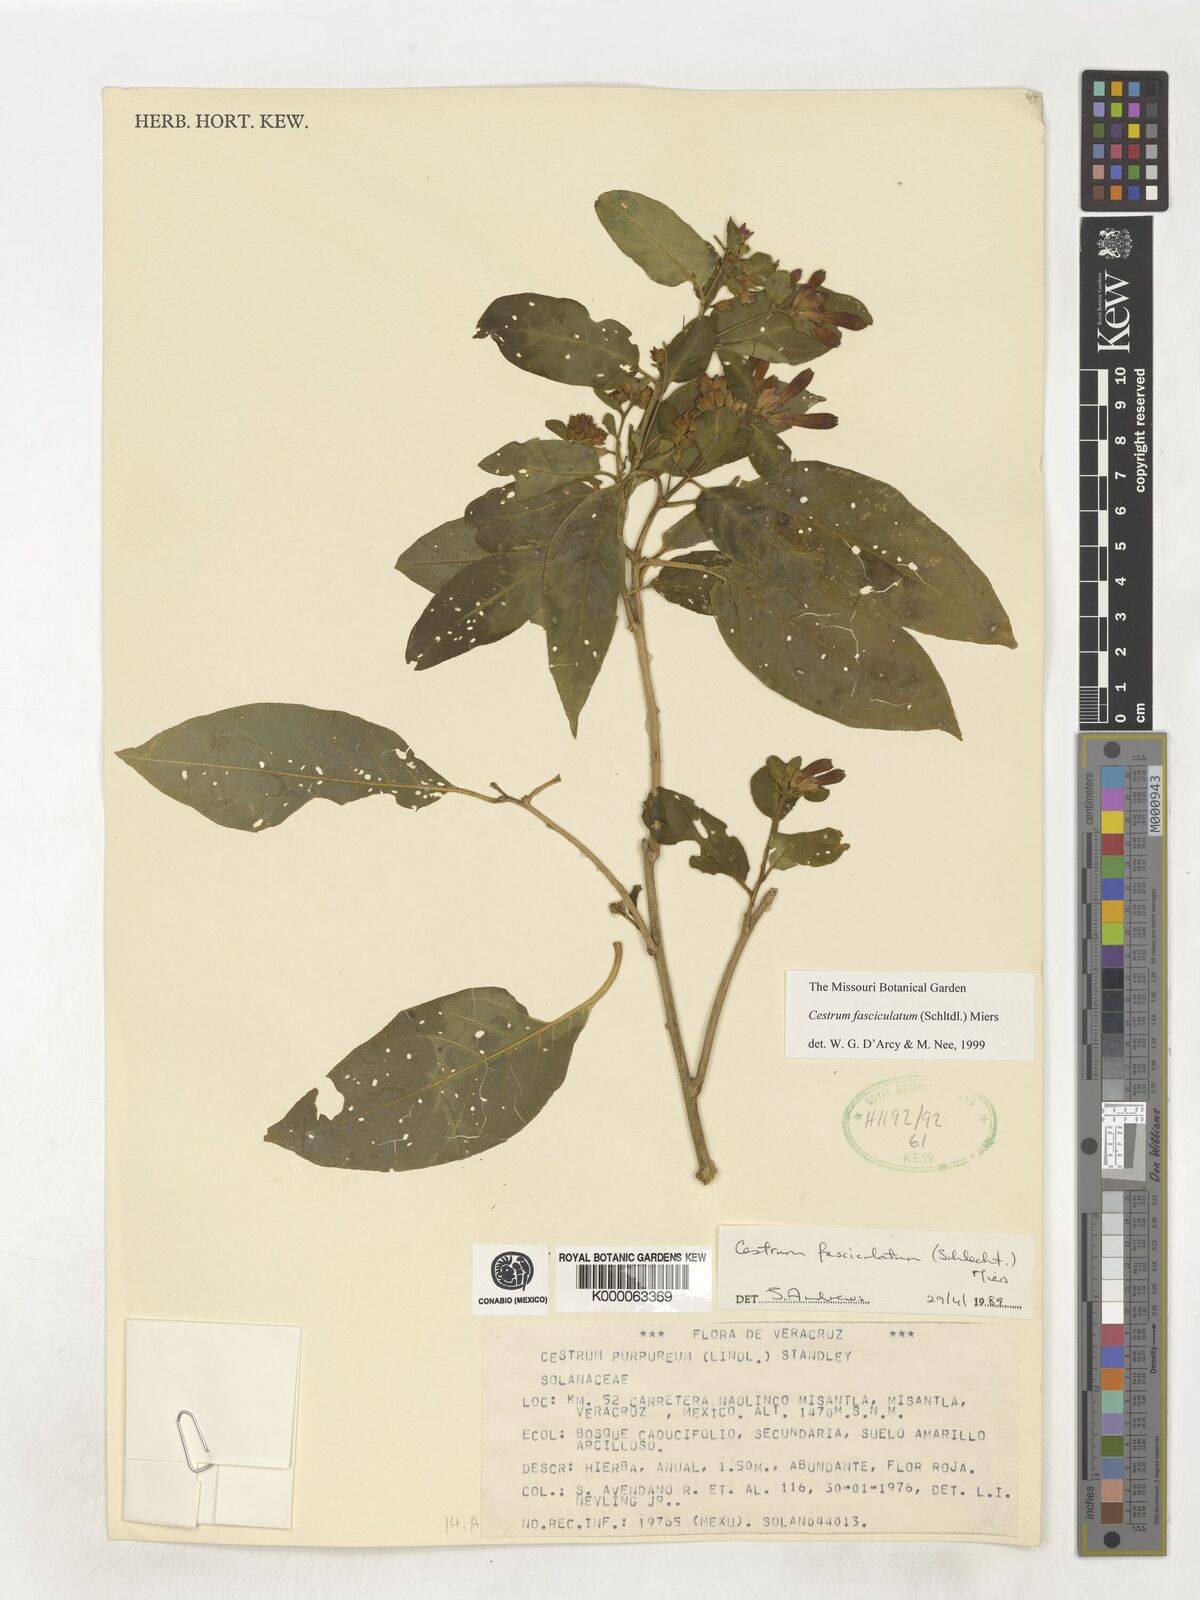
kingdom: Plantae
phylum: Tracheophyta
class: Magnoliopsida
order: Solanales
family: Solanaceae
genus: Cestrum
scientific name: Cestrum fasciculatum
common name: Early jessamine
